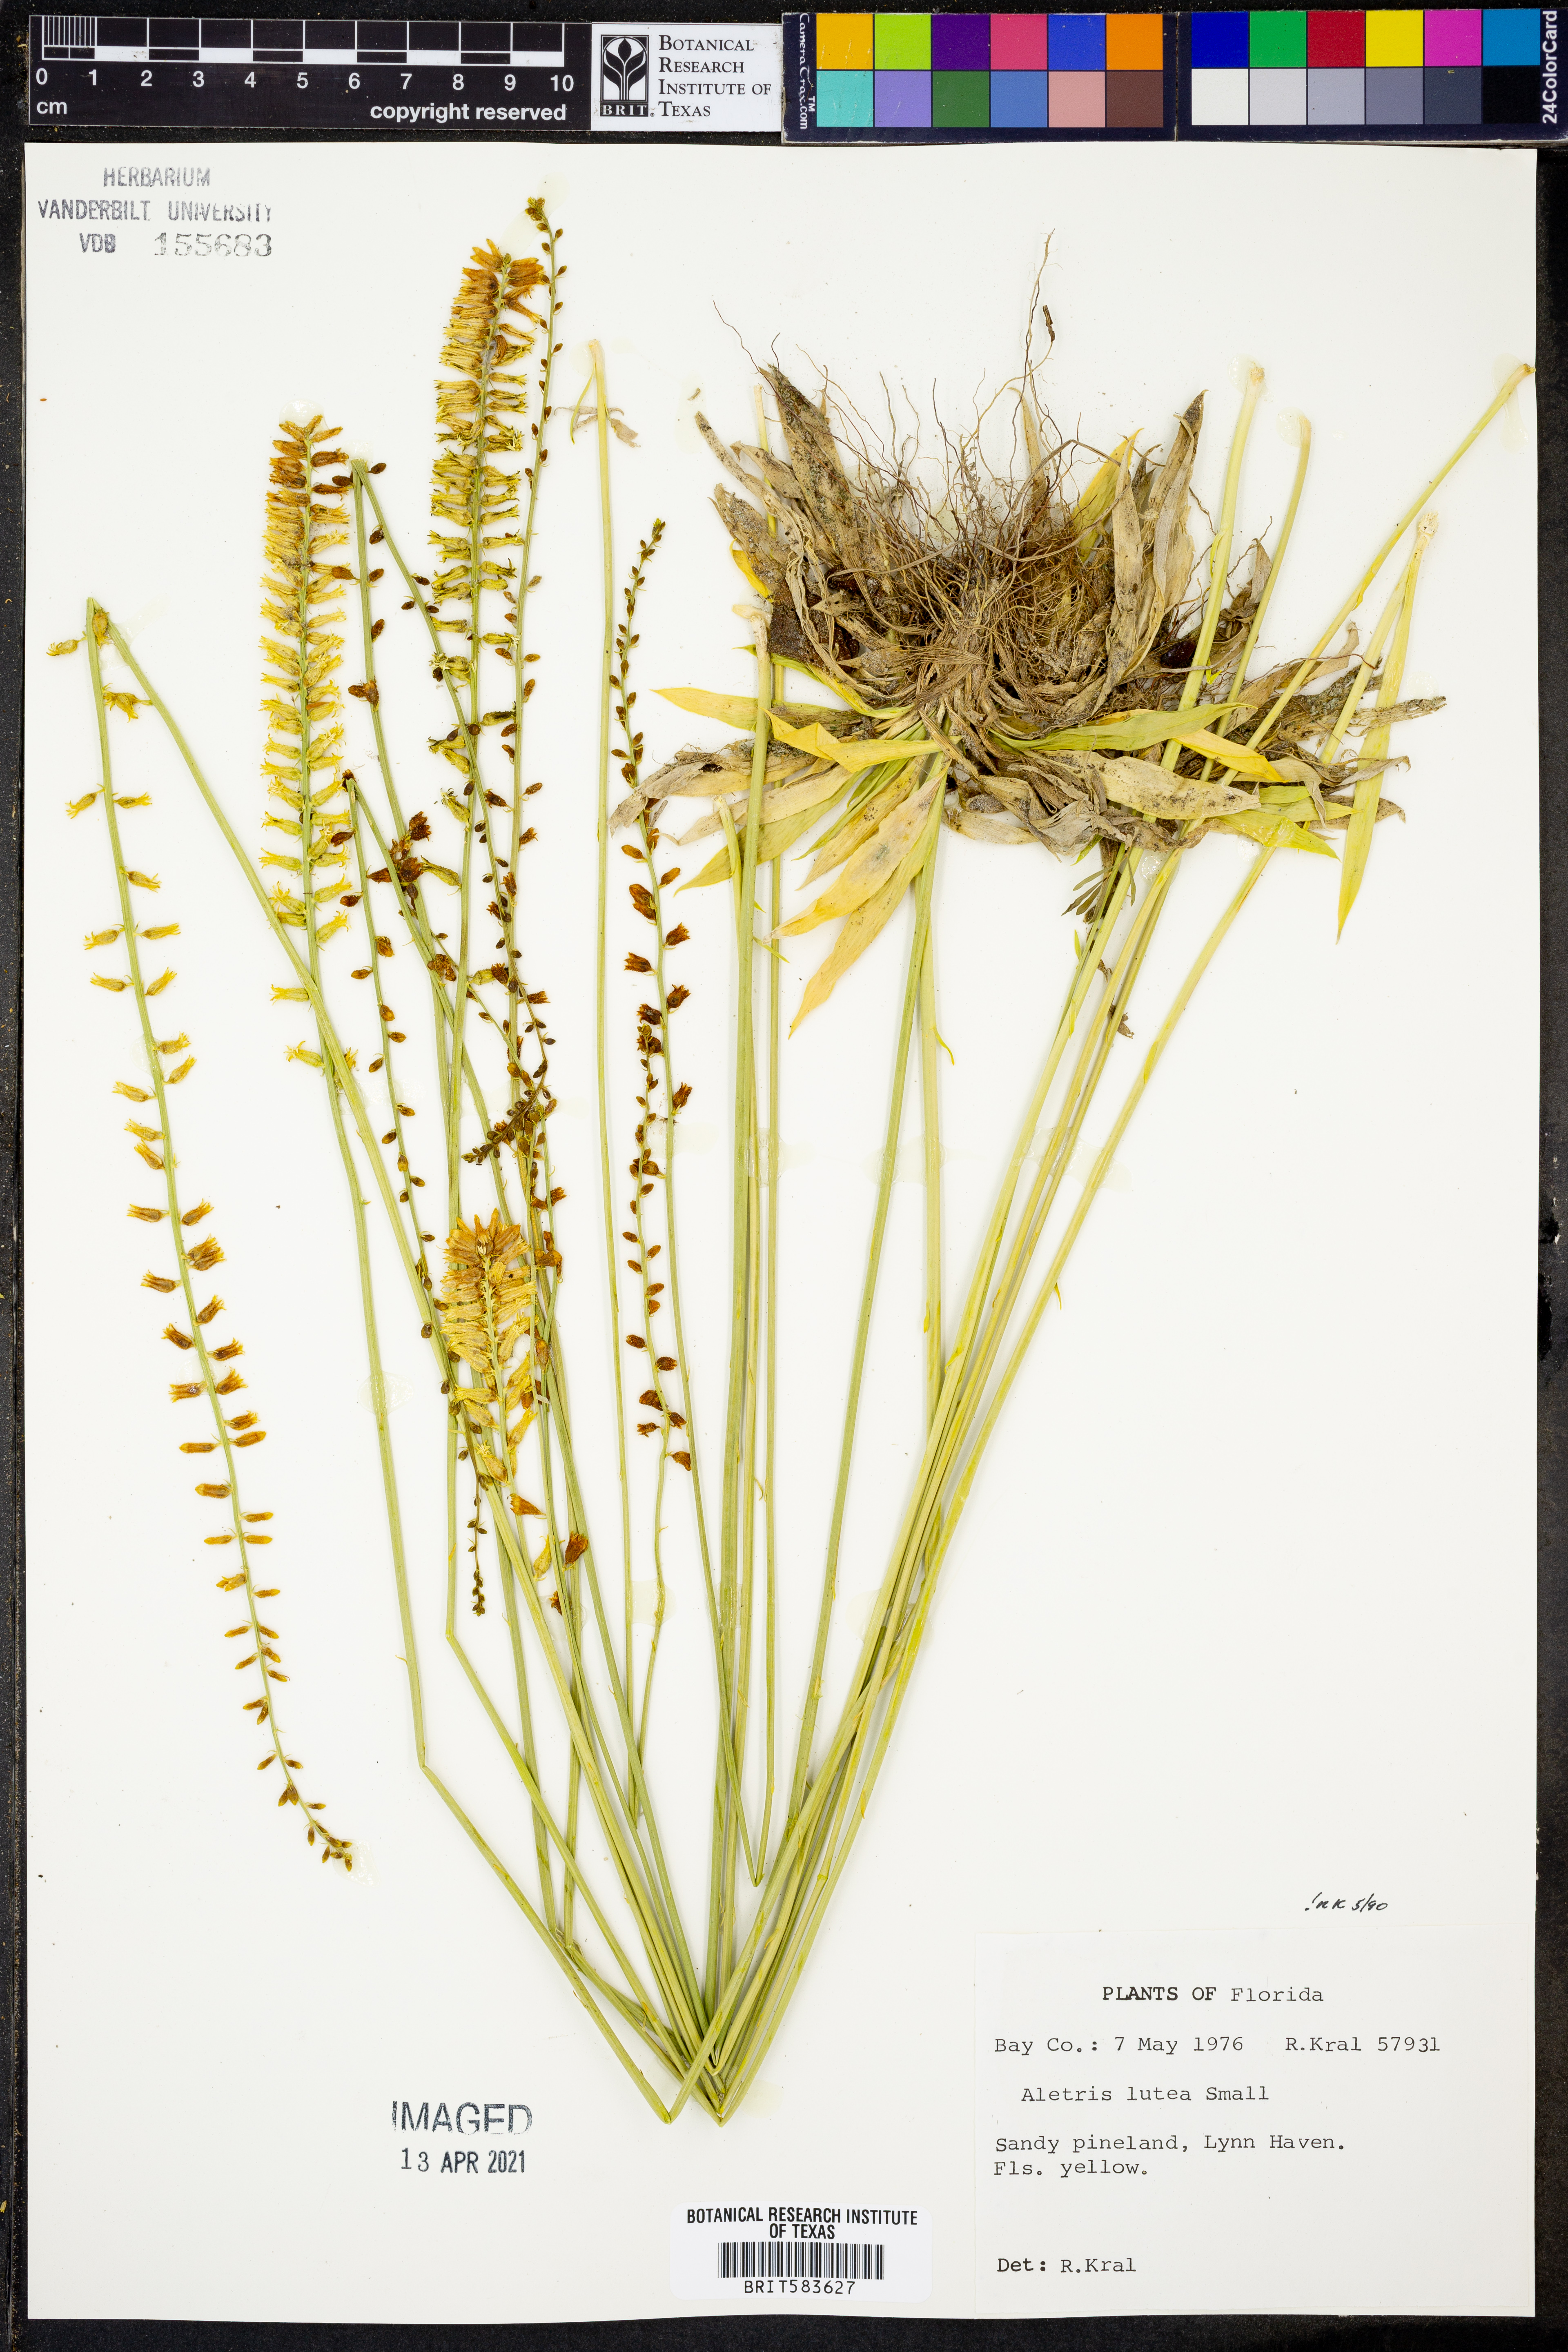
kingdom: Plantae
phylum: Tracheophyta
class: Liliopsida
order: Dioscoreales
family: Nartheciaceae
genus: Aletris
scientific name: Aletris lutea
